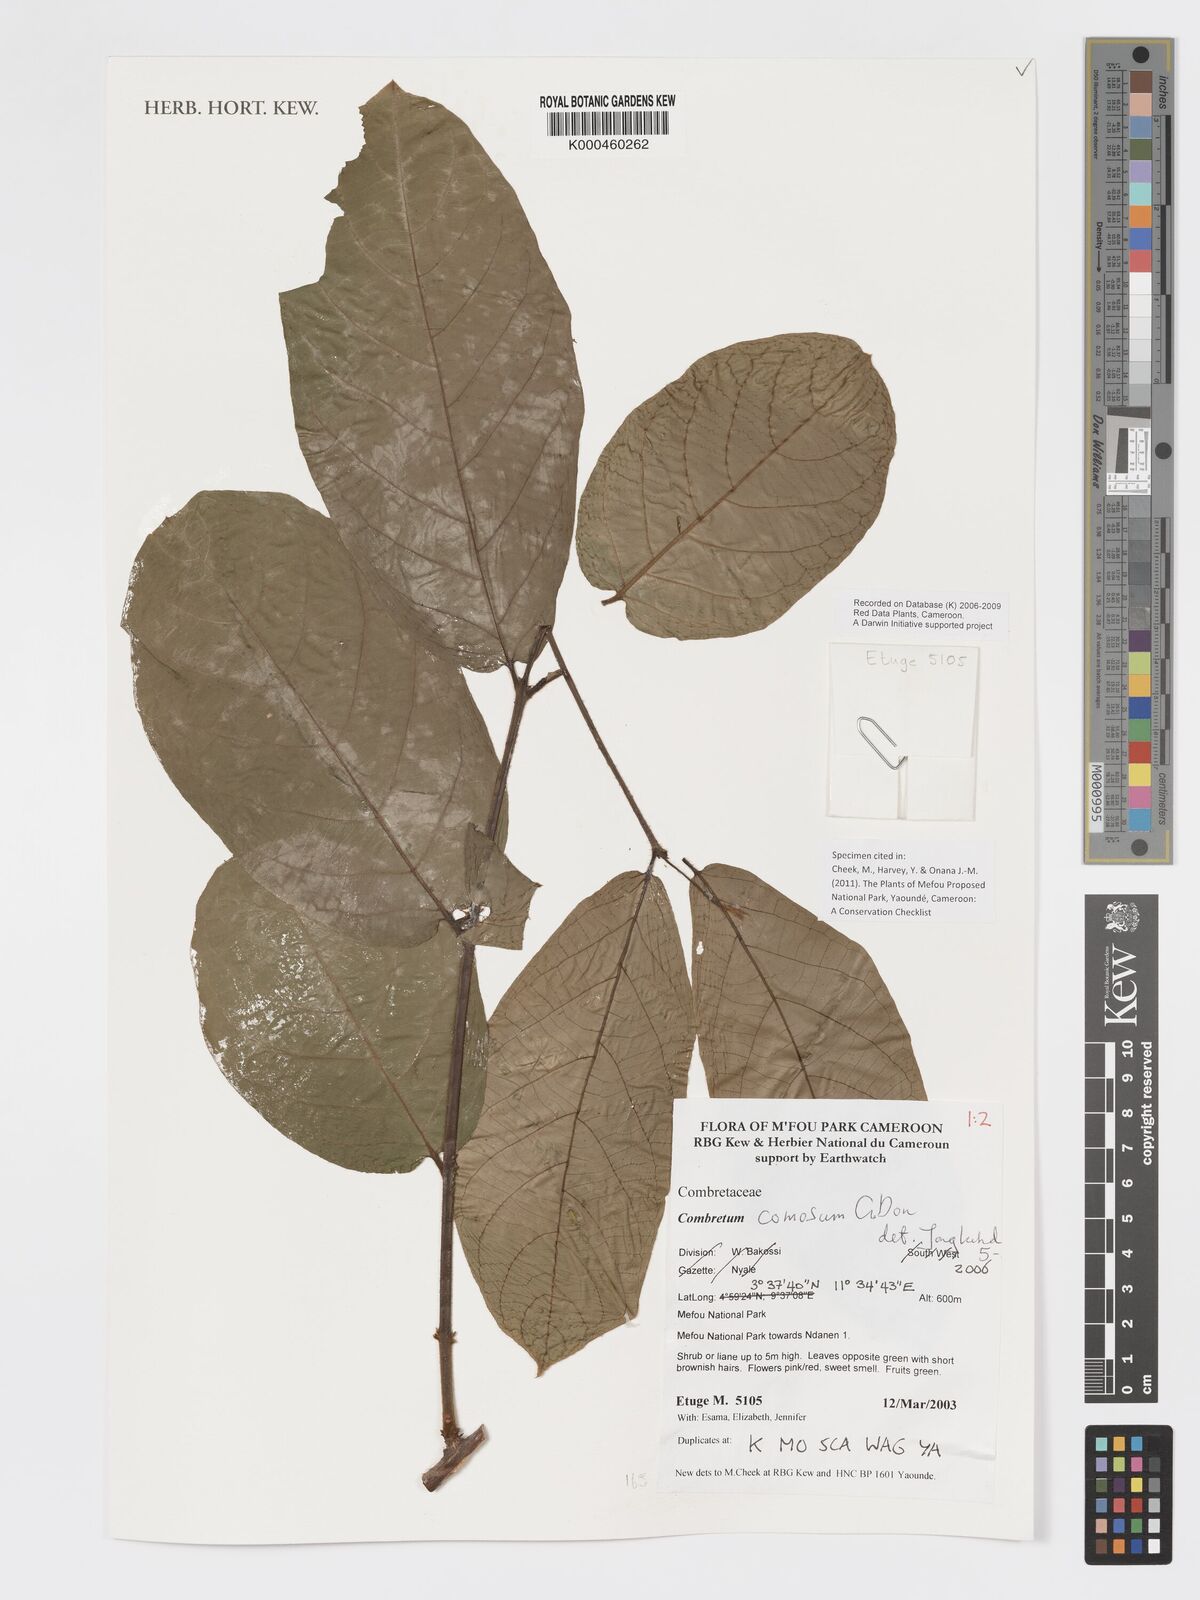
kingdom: Plantae
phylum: Tracheophyta
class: Magnoliopsida
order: Myrtales
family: Combretaceae
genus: Combretum
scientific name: Combretum comosum
